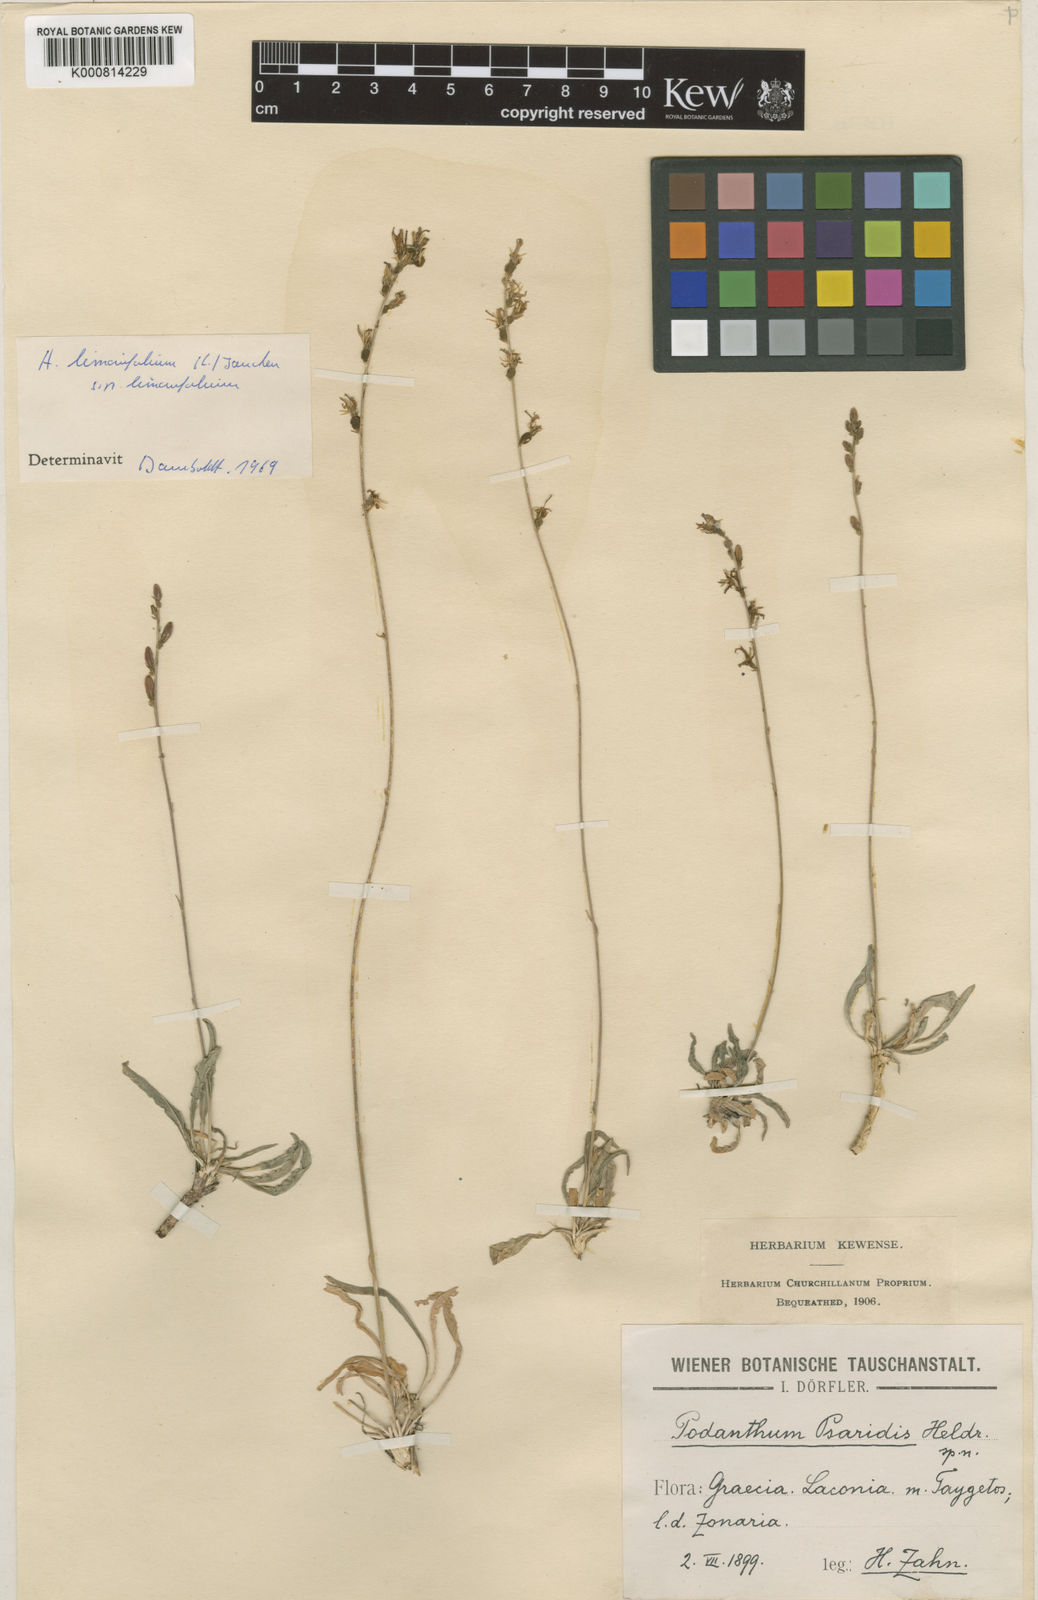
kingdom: Plantae
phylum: Tracheophyta
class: Magnoliopsida
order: Asterales
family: Campanulaceae
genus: Asyneuma
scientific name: Asyneuma limonifolium
